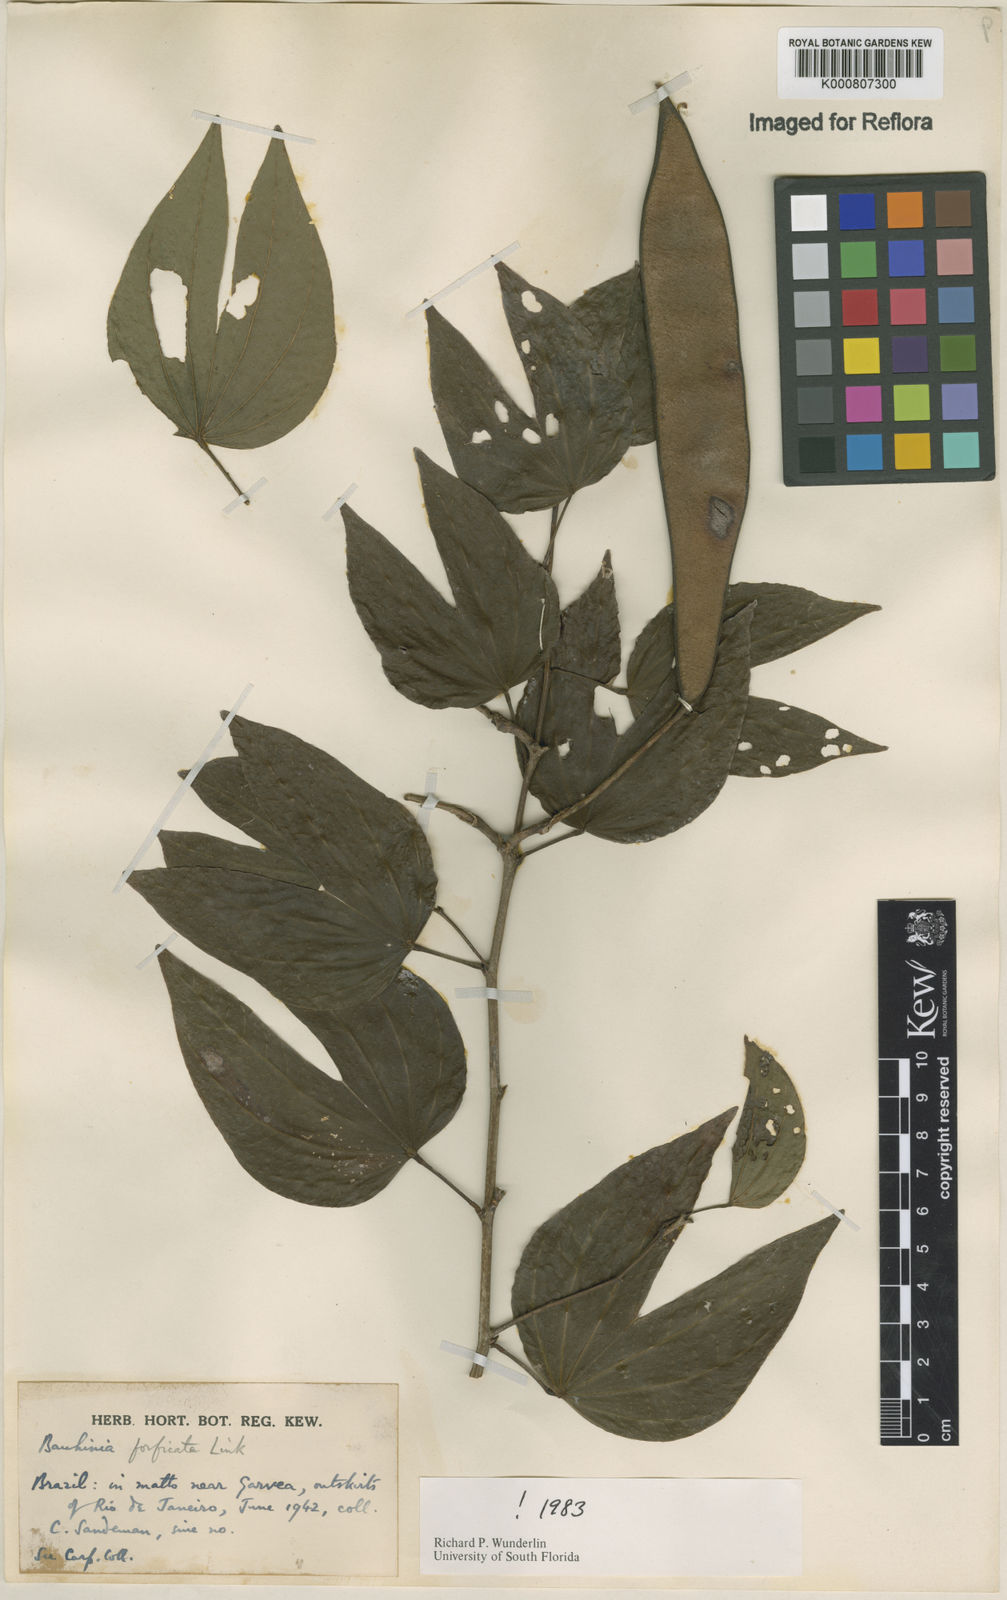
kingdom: Plantae
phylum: Tracheophyta
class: Magnoliopsida
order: Fabales
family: Fabaceae
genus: Bauhinia
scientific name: Bauhinia forficata
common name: Orchid tree
